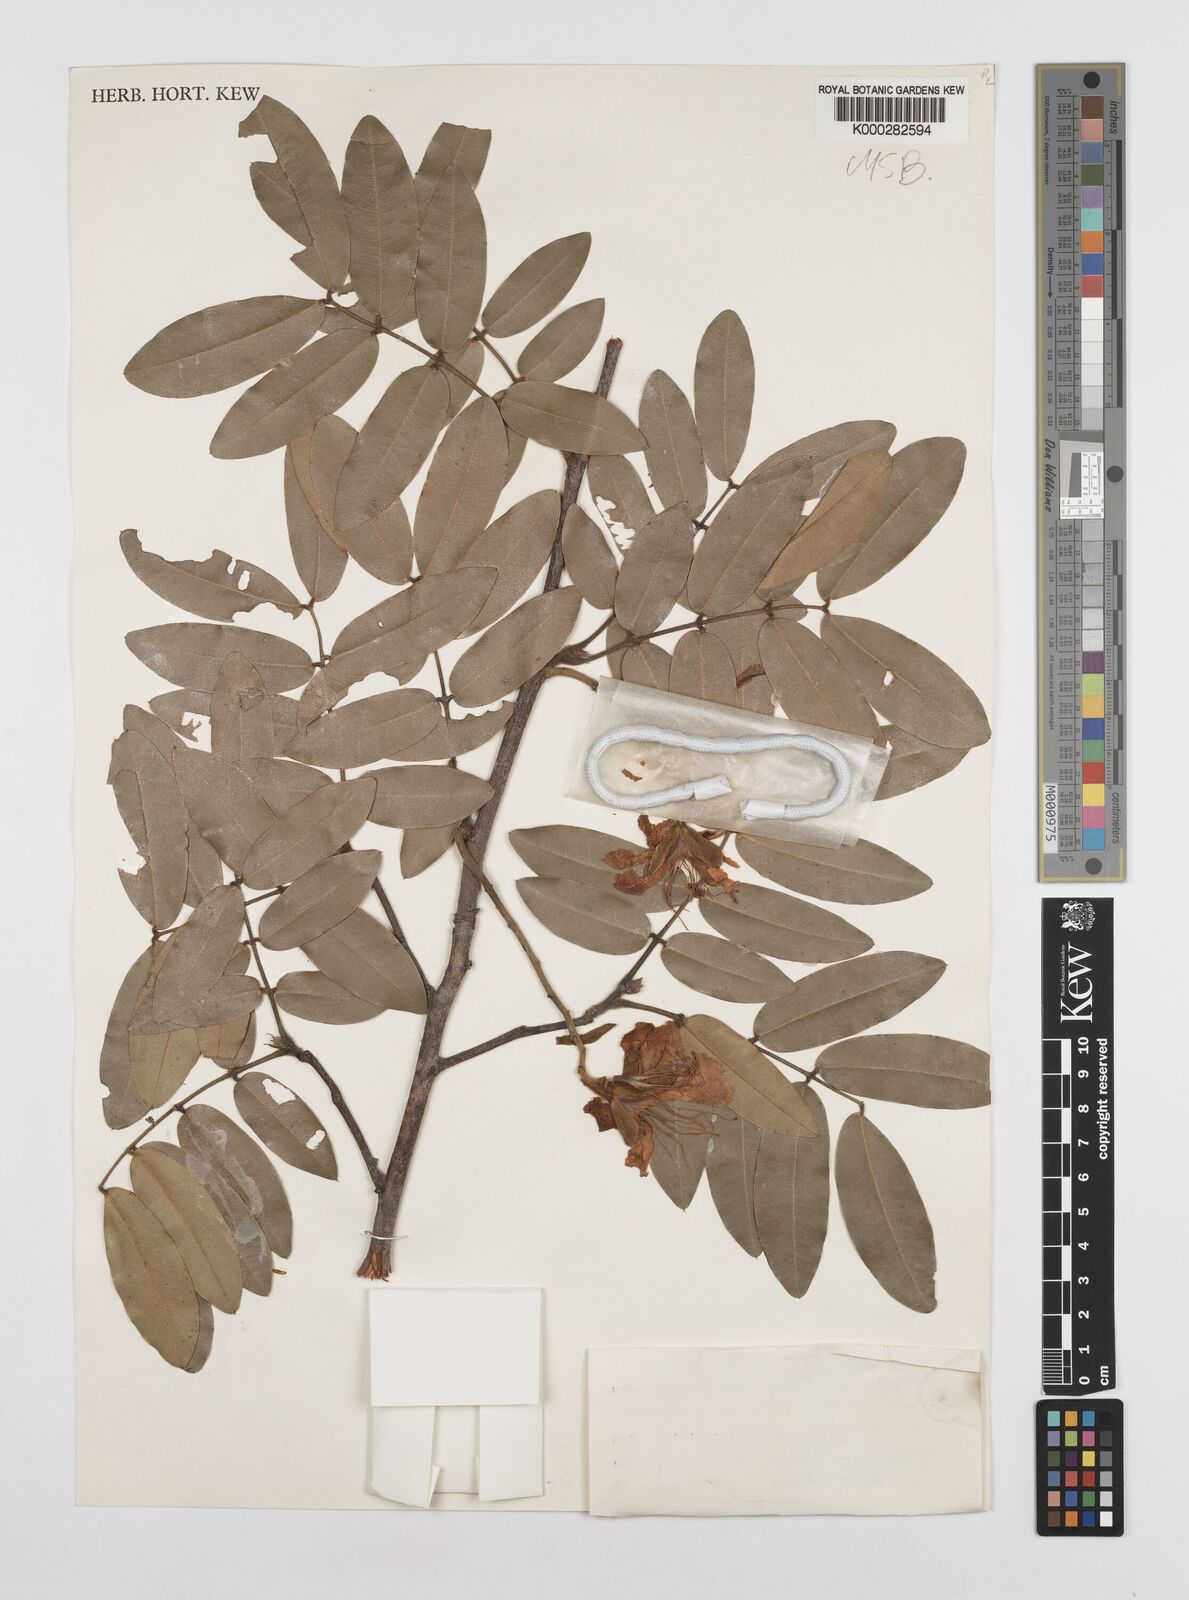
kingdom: Plantae
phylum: Tracheophyta
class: Magnoliopsida
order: Fabales
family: Fabaceae
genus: Baikiaea
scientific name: Baikiaea plurijuga
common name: Rhodesian-teak
